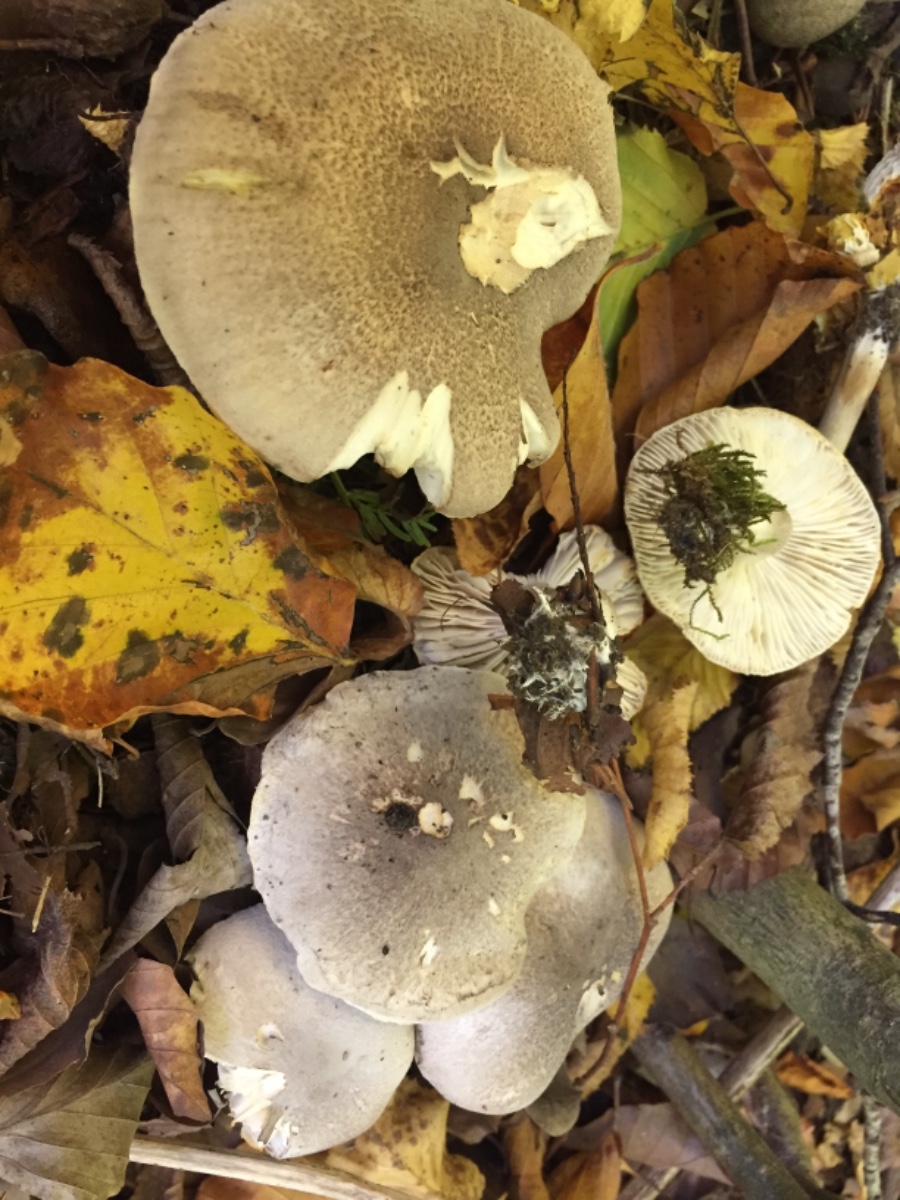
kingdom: Fungi
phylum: Basidiomycota
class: Agaricomycetes
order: Agaricales
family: Tricholomataceae
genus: Tricholoma
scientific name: Tricholoma scalpturatum
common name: gulplettet ridderhat
